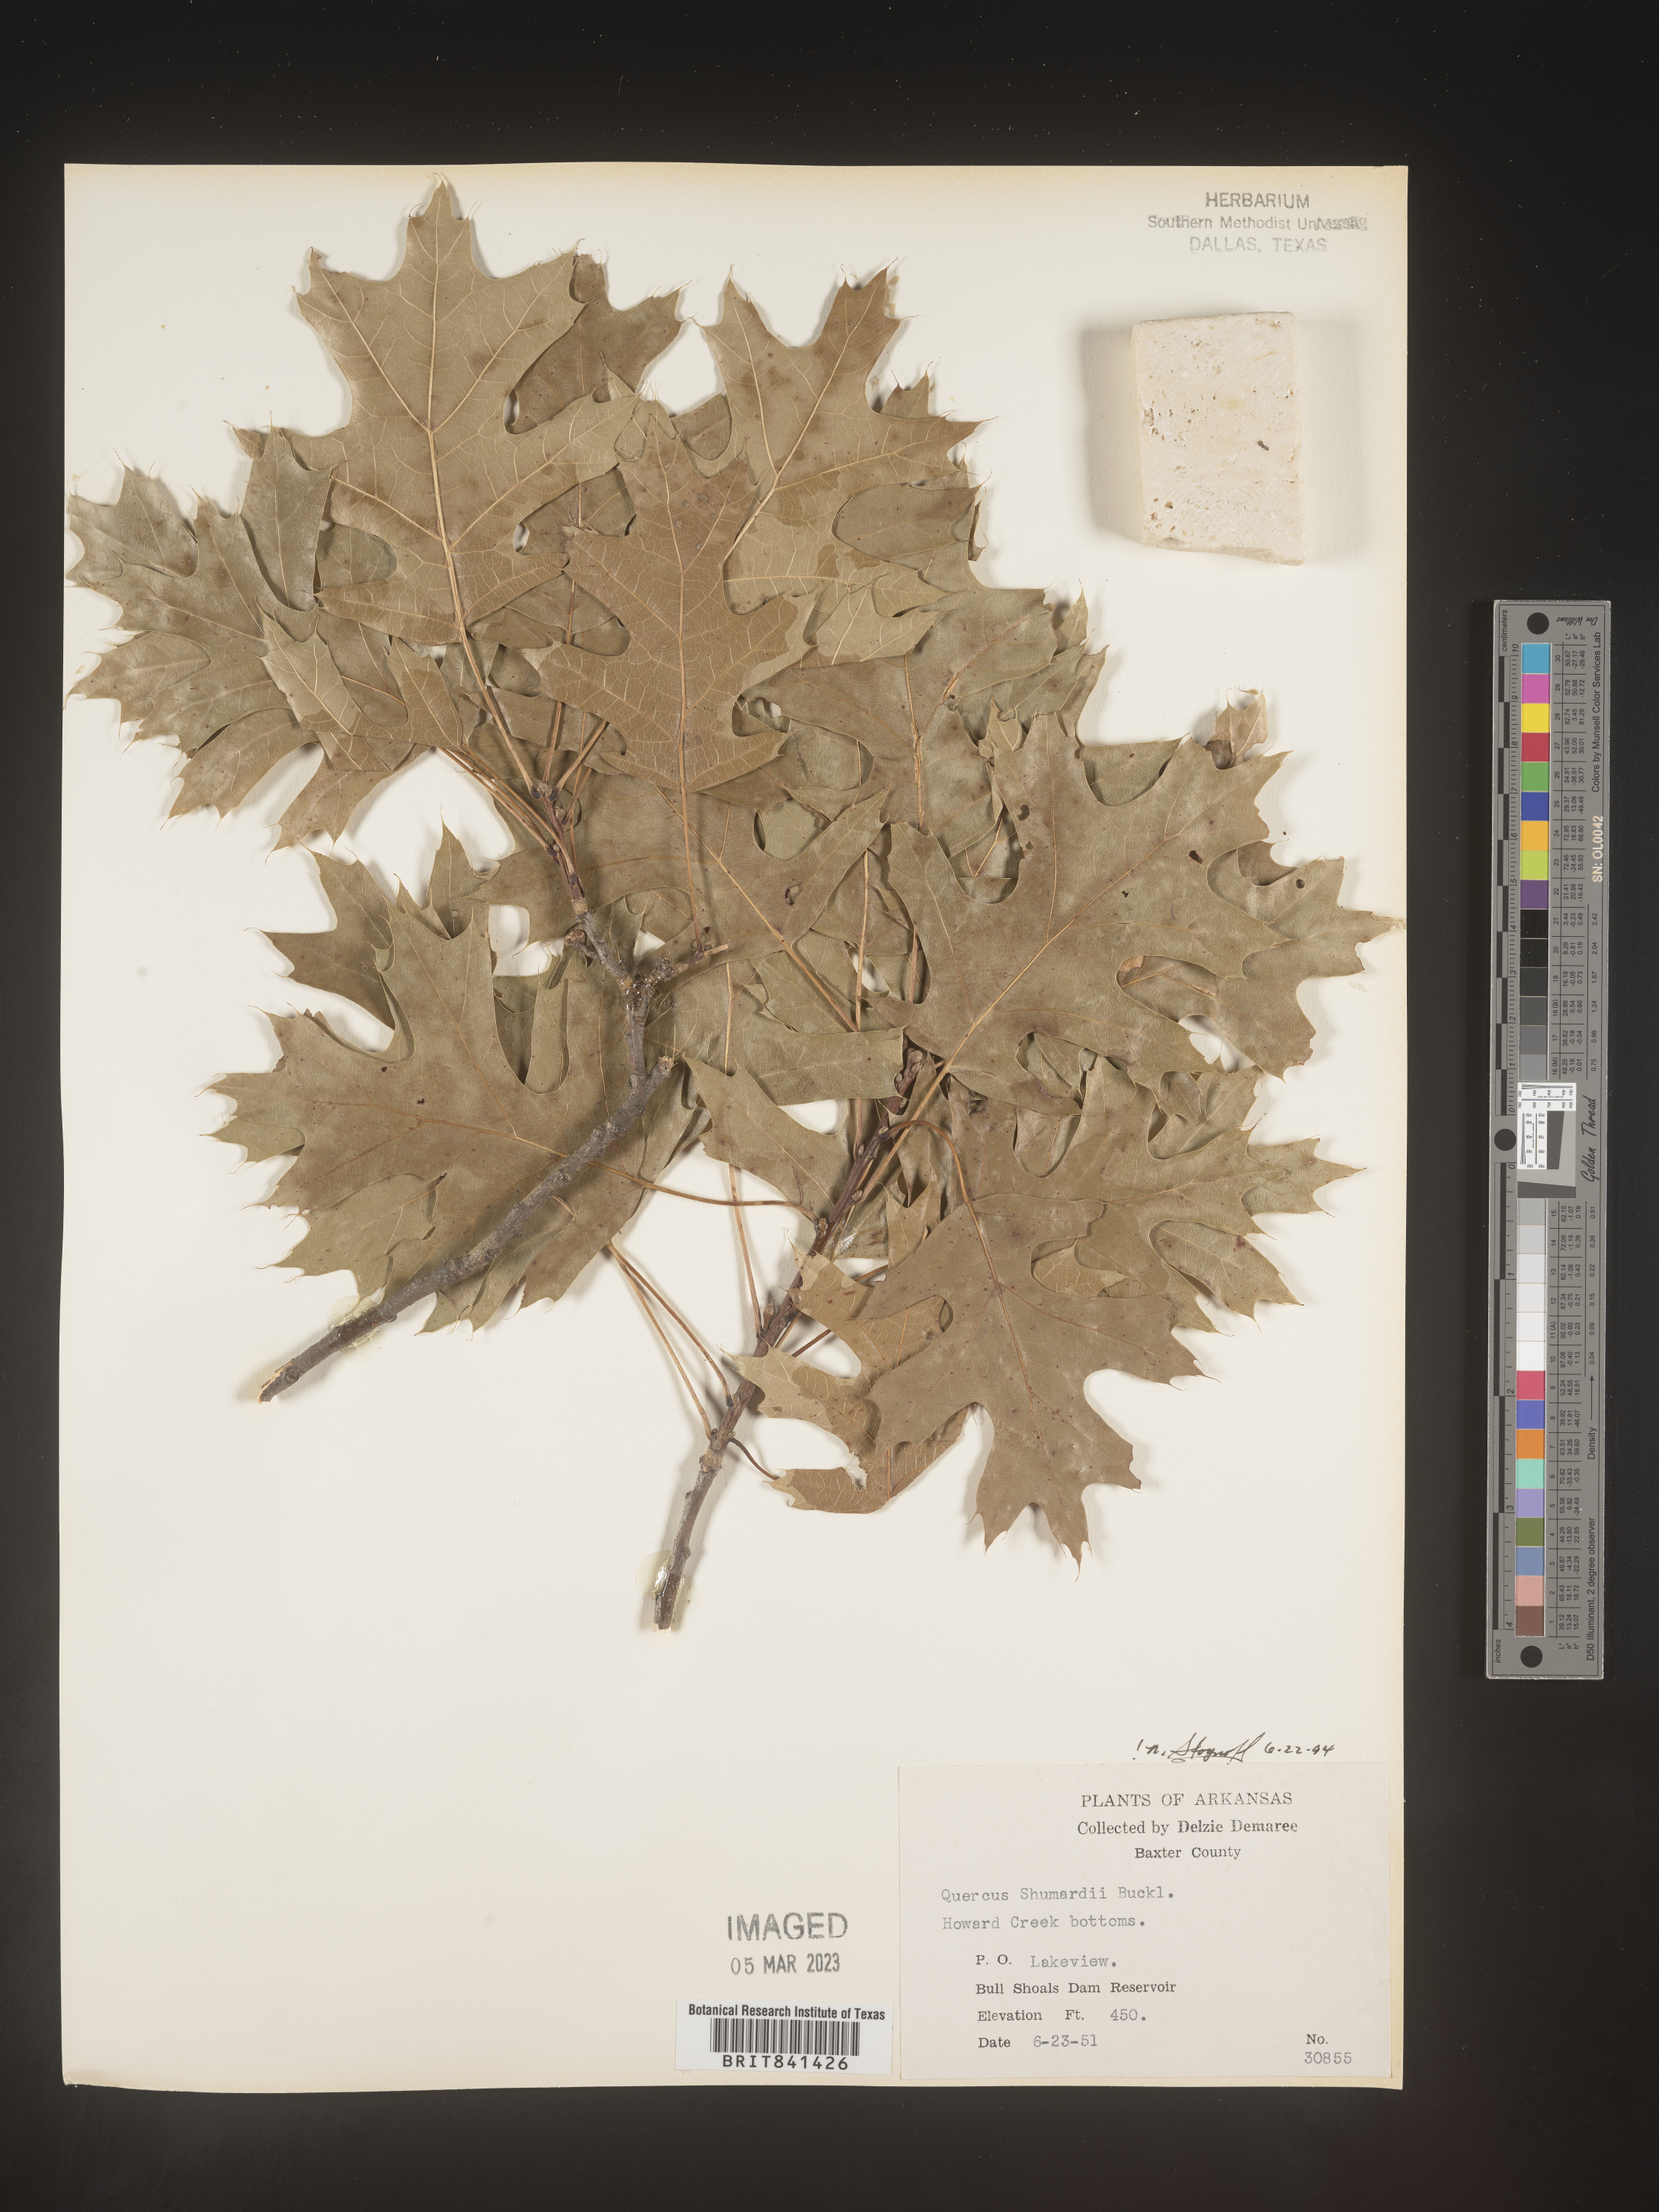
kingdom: Plantae
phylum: Tracheophyta
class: Magnoliopsida
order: Fagales
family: Fagaceae
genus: Quercus
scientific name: Quercus shumardii
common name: Shumard oak
